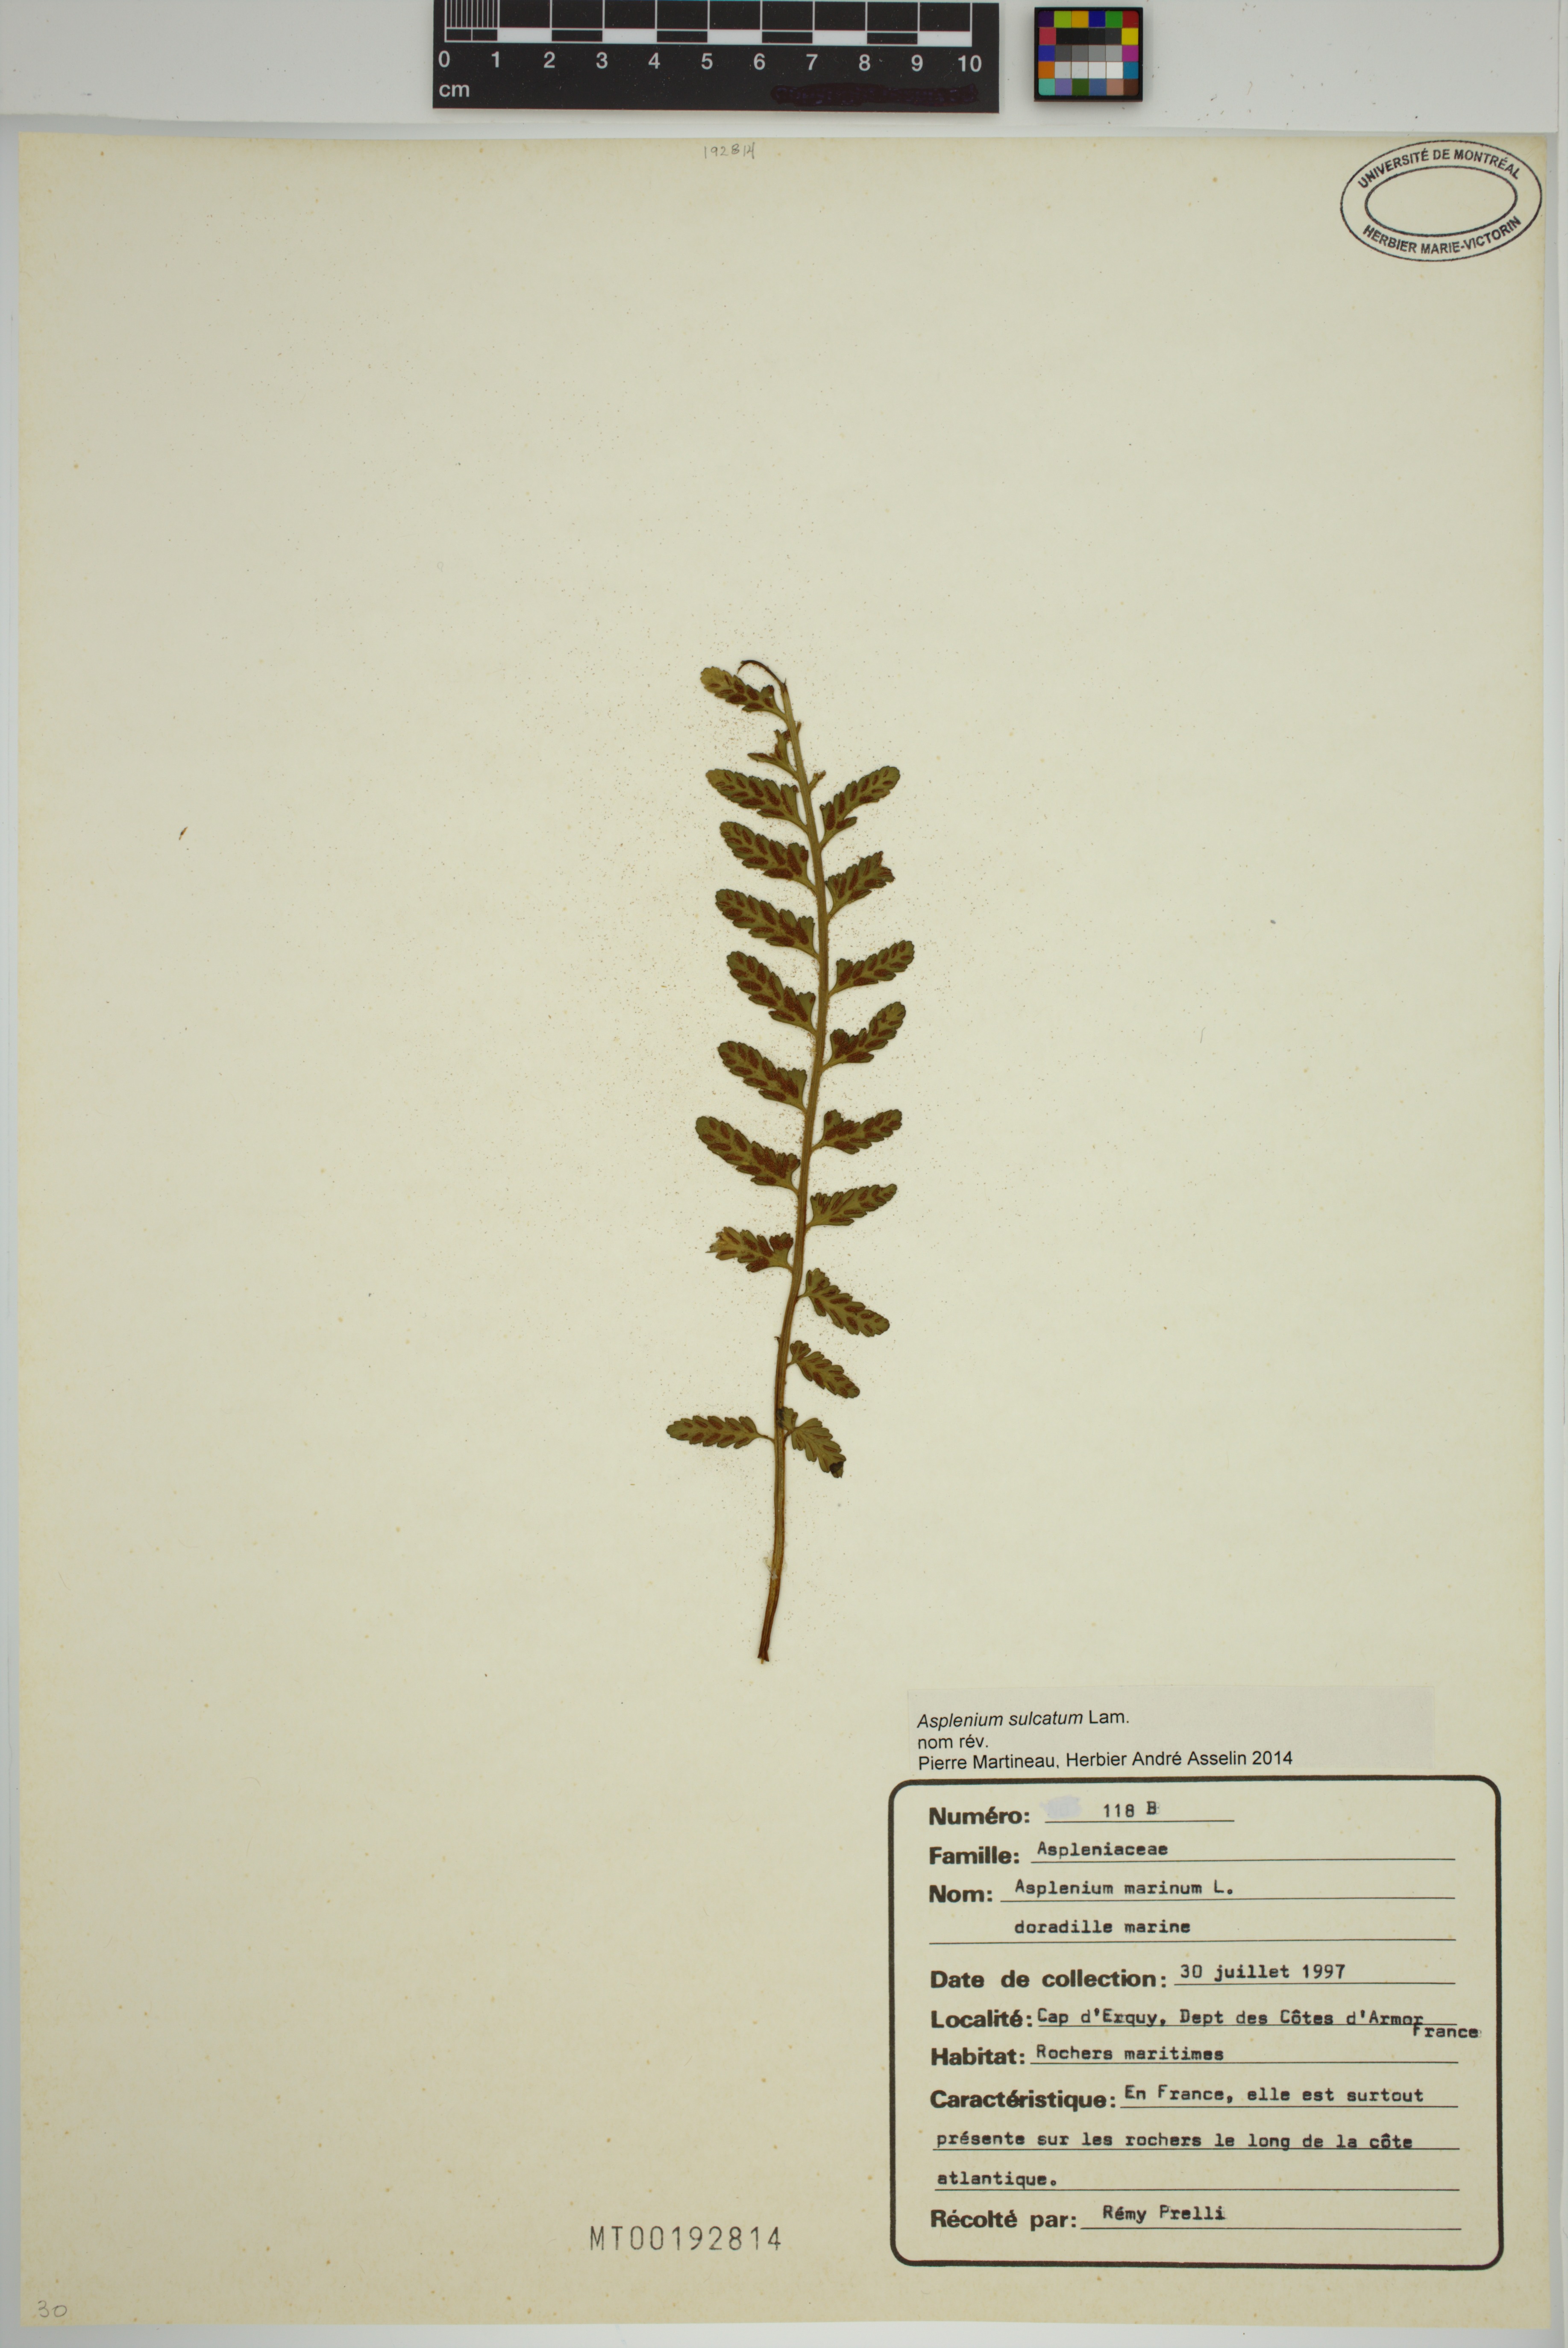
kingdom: Plantae
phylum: Tracheophyta
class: Polypodiopsida
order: Polypodiales
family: Aspleniaceae
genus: Asplenium
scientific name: Asplenium sulcatum
